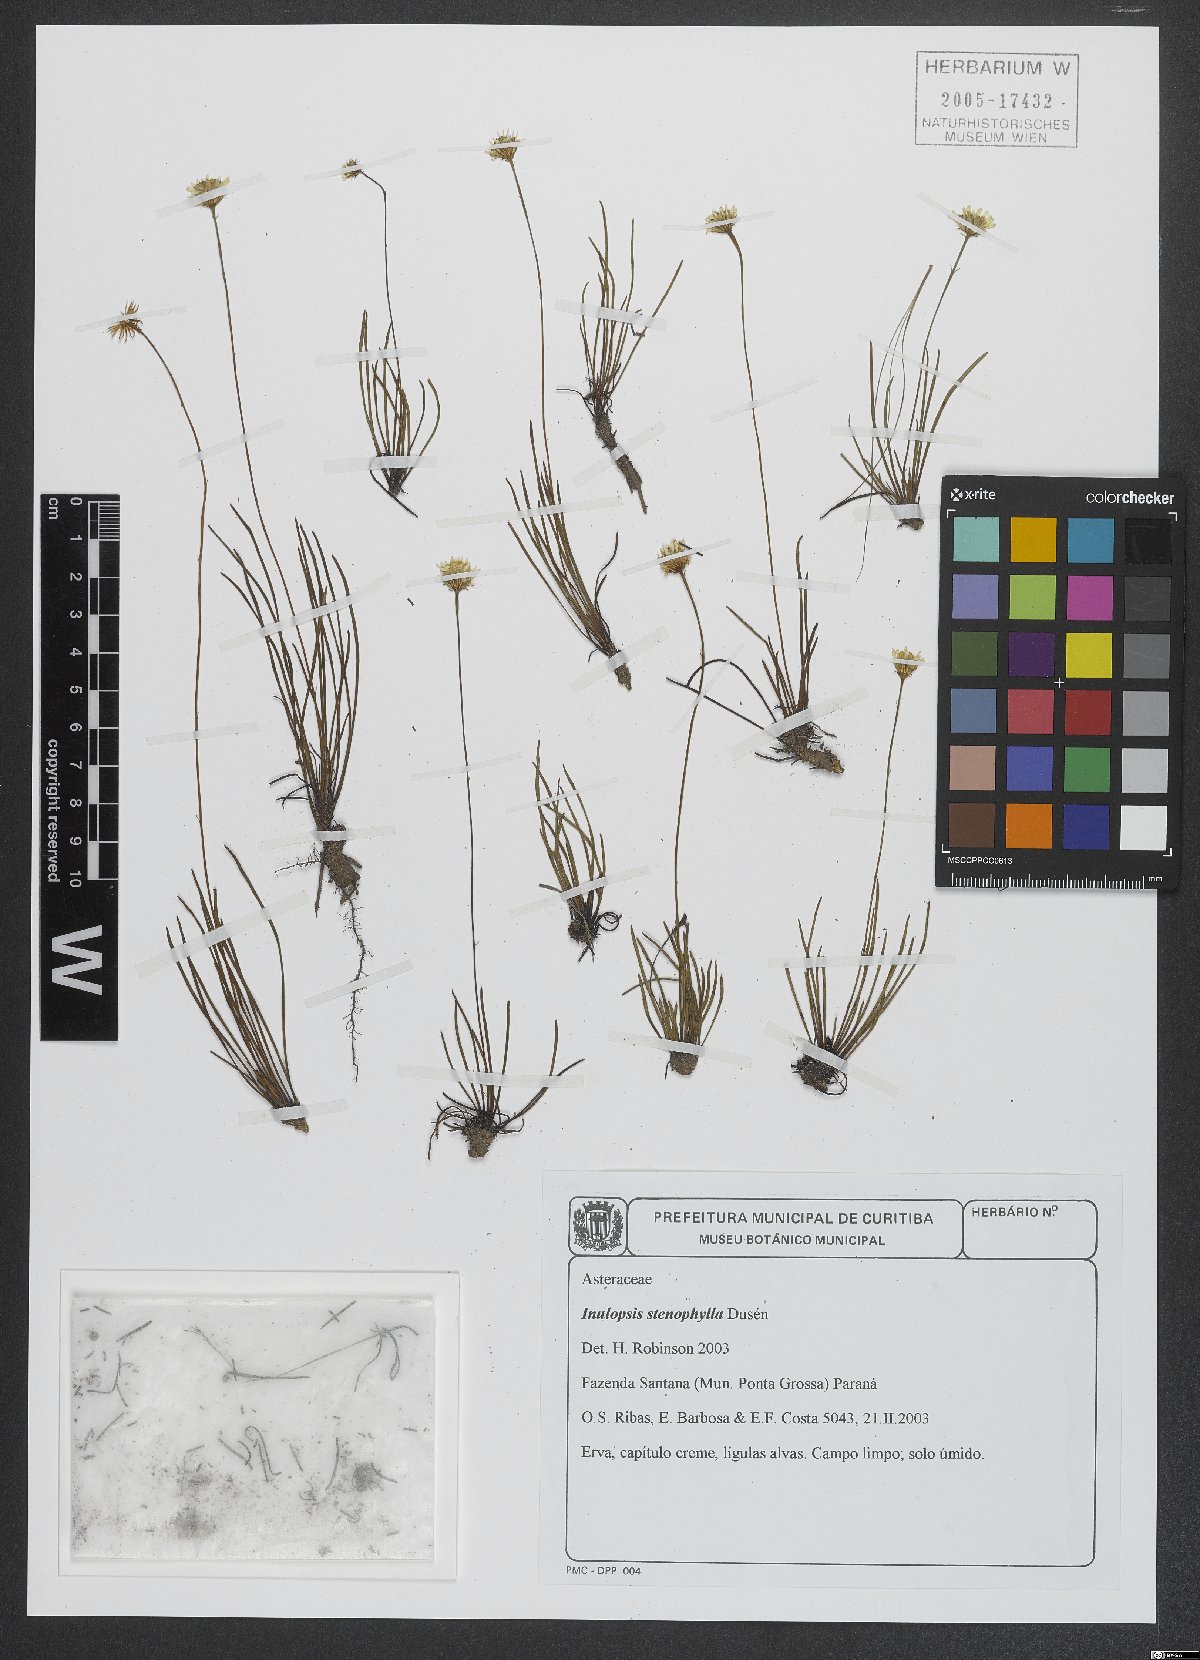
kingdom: Plantae
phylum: Tracheophyta
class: Magnoliopsida
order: Asterales
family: Asteraceae
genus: Inulopsis
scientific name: Inulopsis stenophylla
